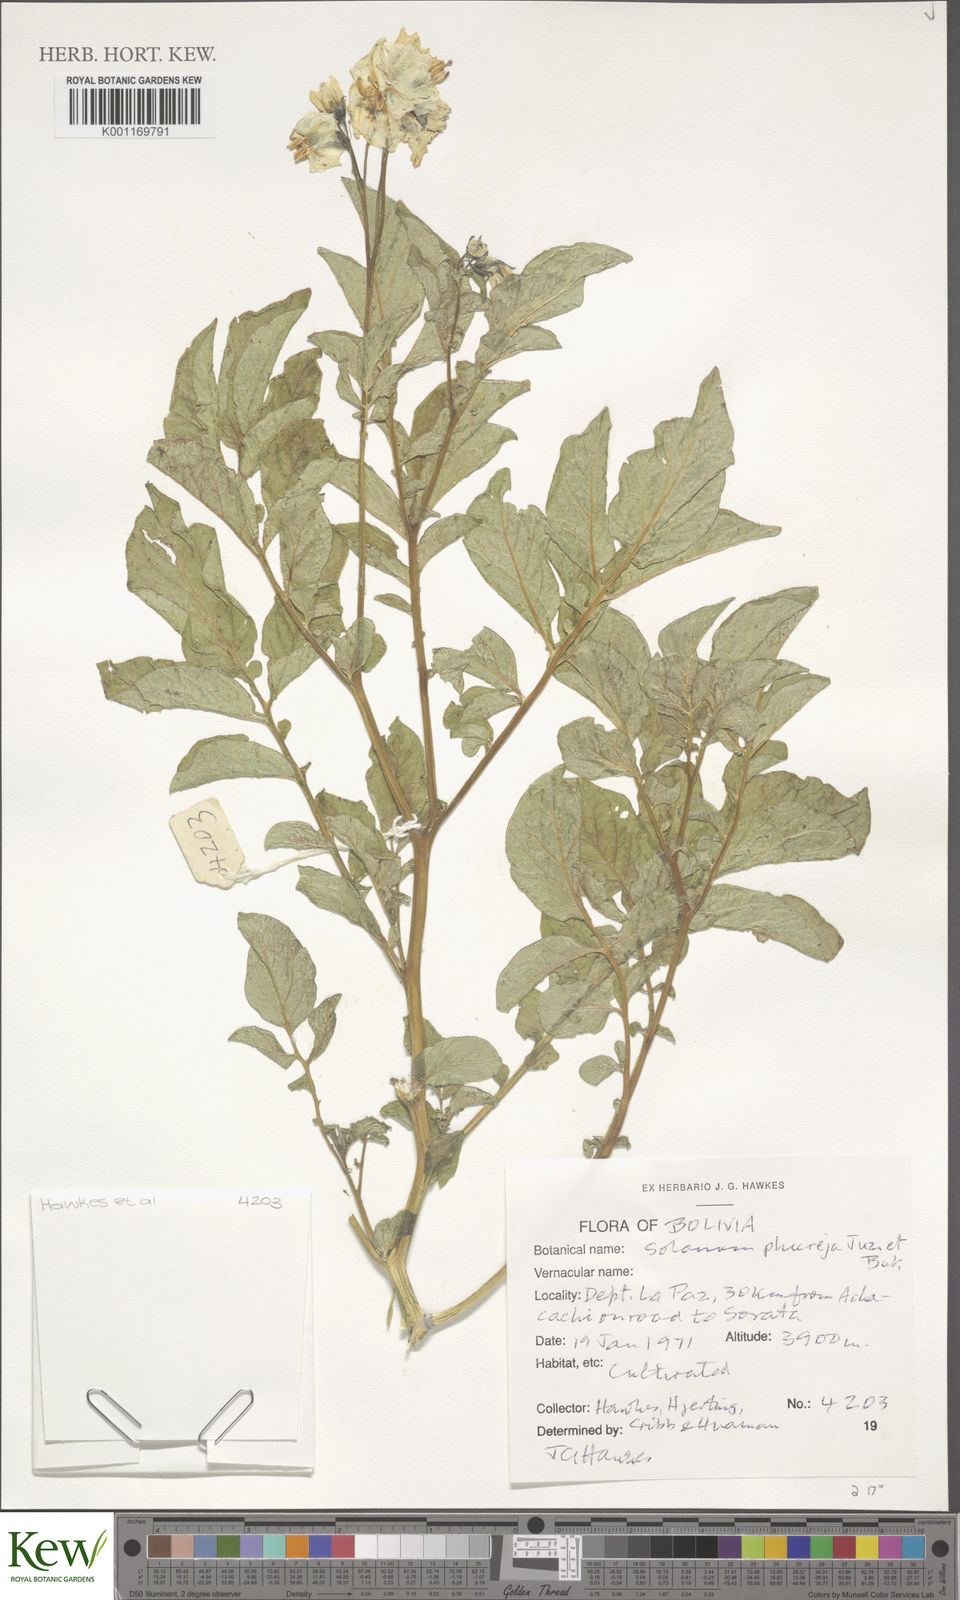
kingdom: Plantae
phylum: Tracheophyta
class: Magnoliopsida
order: Solanales
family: Solanaceae
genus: Solanum
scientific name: Solanum tuberosum
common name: Potato
